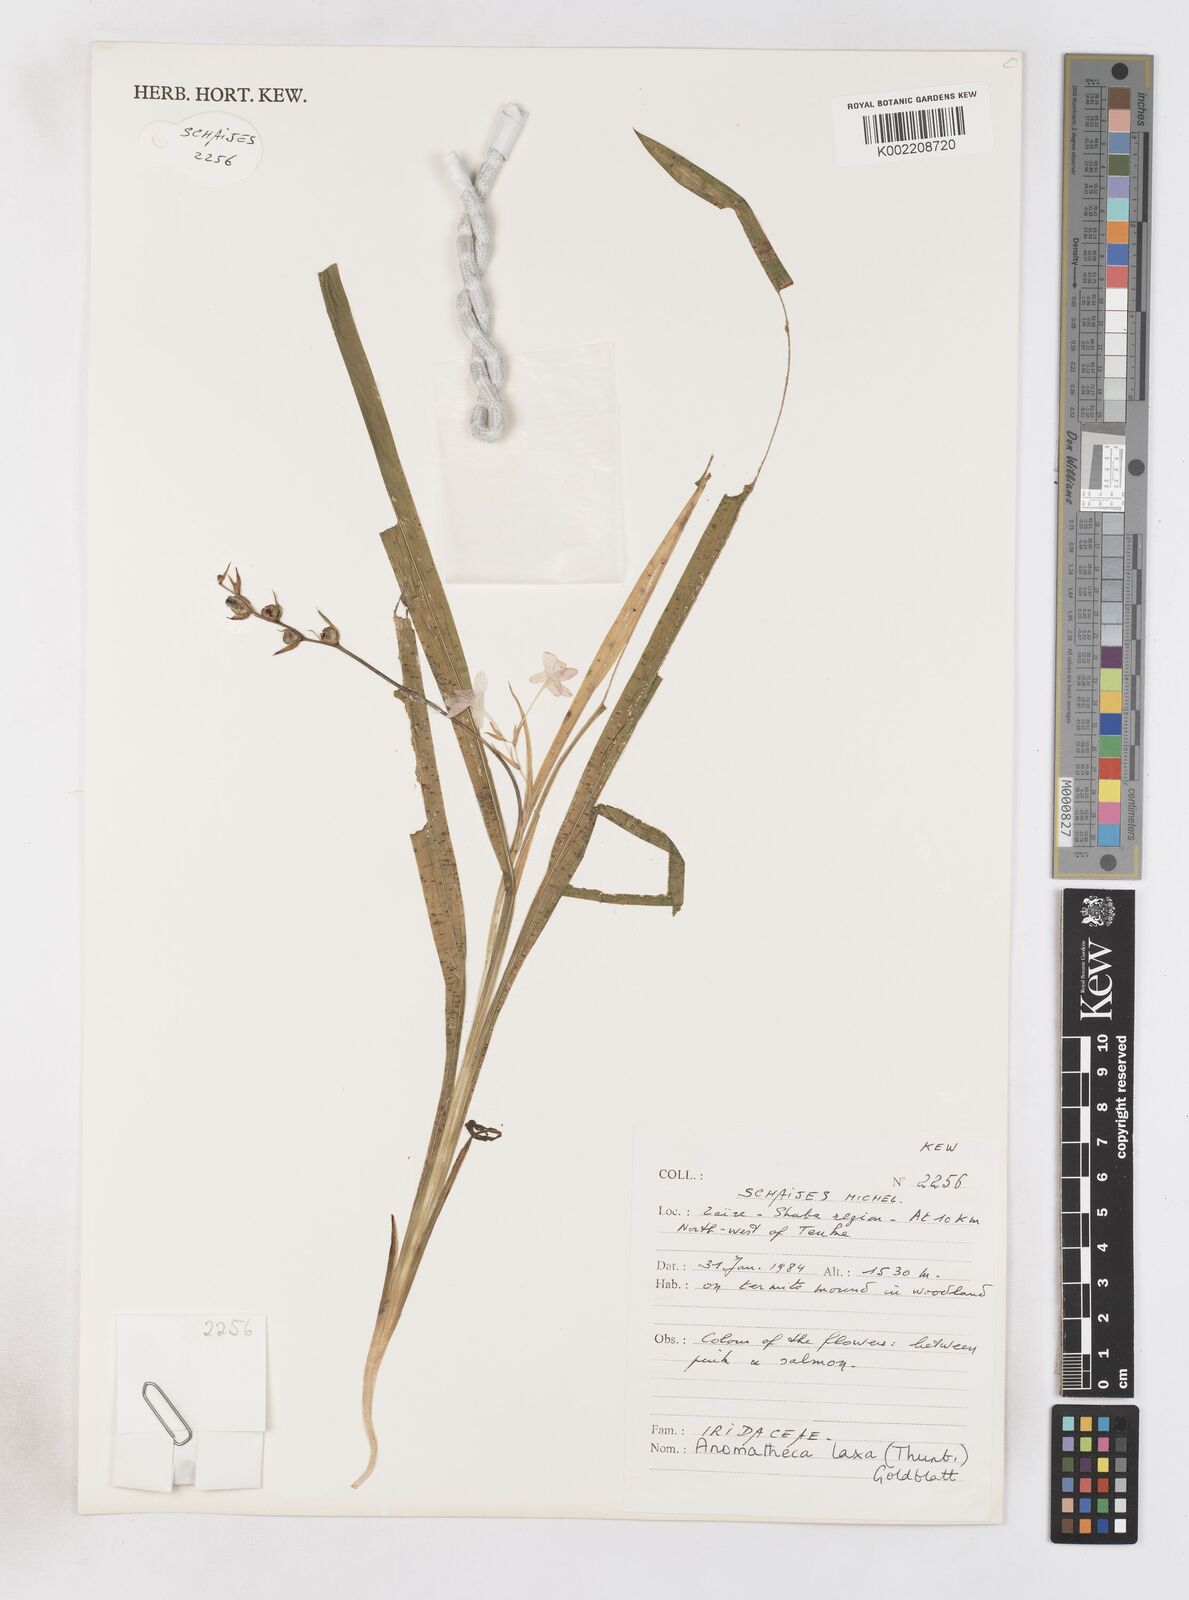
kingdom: Plantae
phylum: Tracheophyta
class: Liliopsida
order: Asparagales
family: Iridaceae
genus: Freesia
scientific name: Freesia laxa
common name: False freesia
